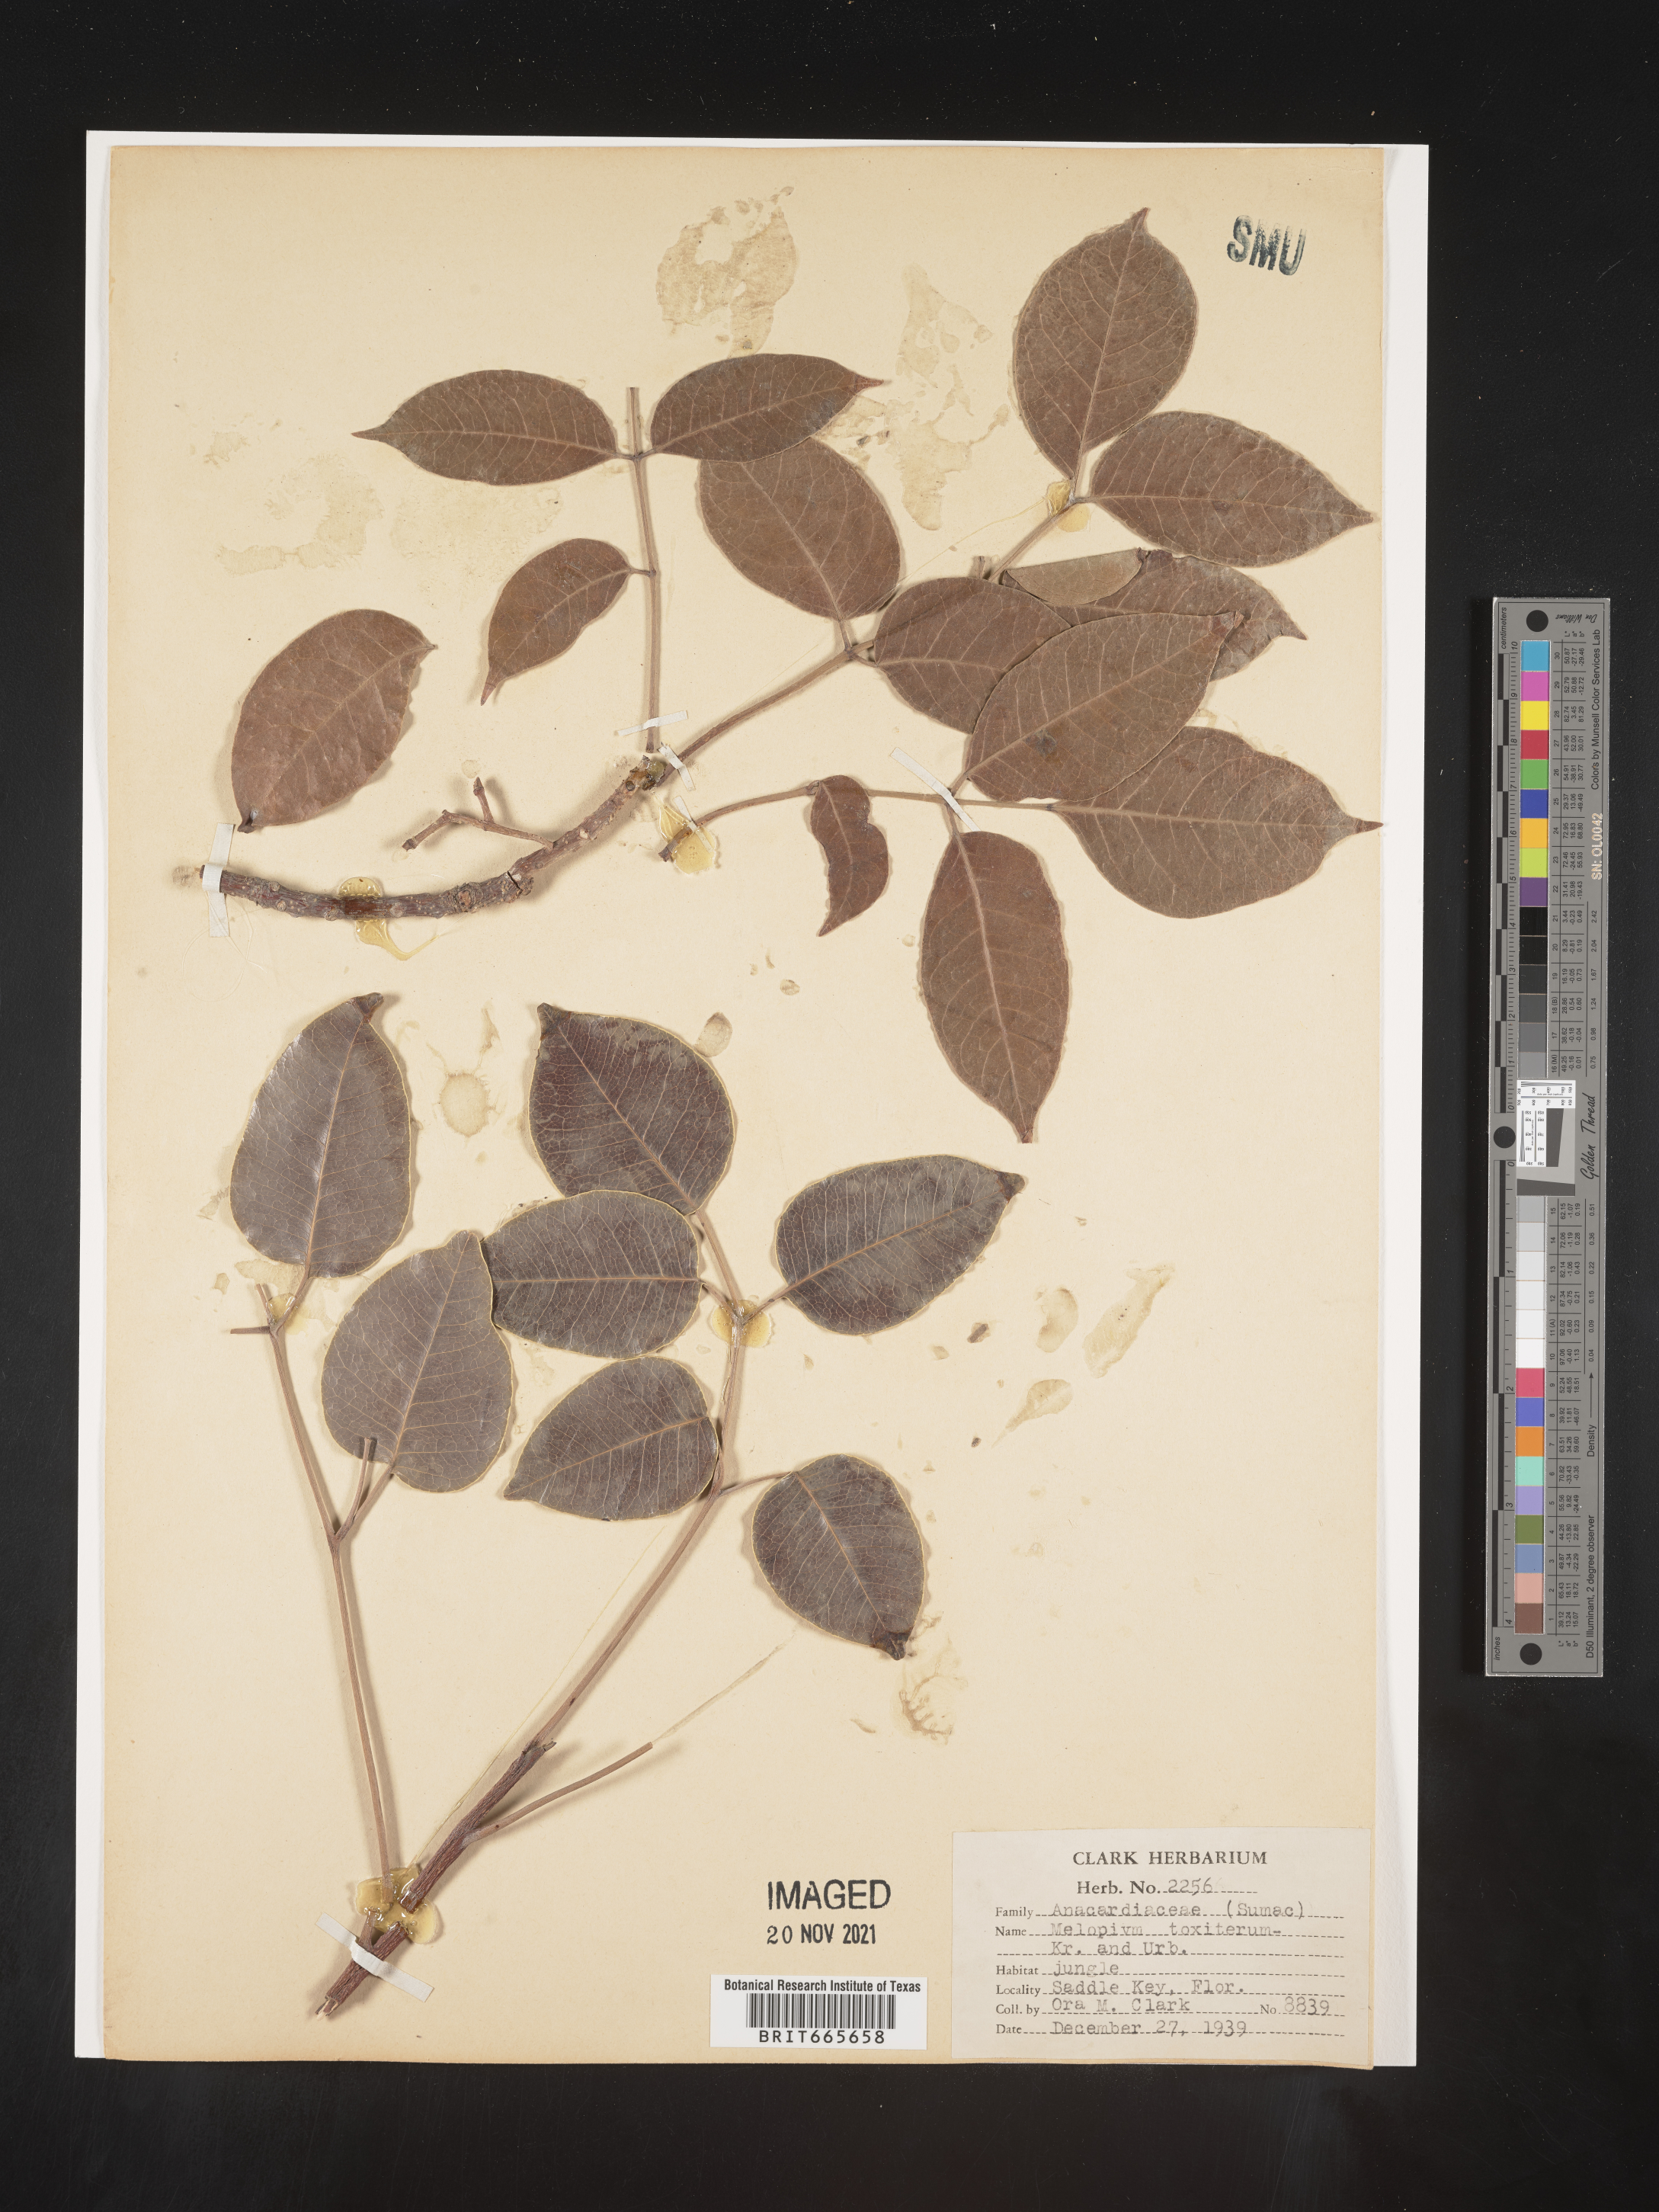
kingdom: Plantae
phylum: Tracheophyta
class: Magnoliopsida
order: Sapindales
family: Anacardiaceae
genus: Metopium
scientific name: Metopium
